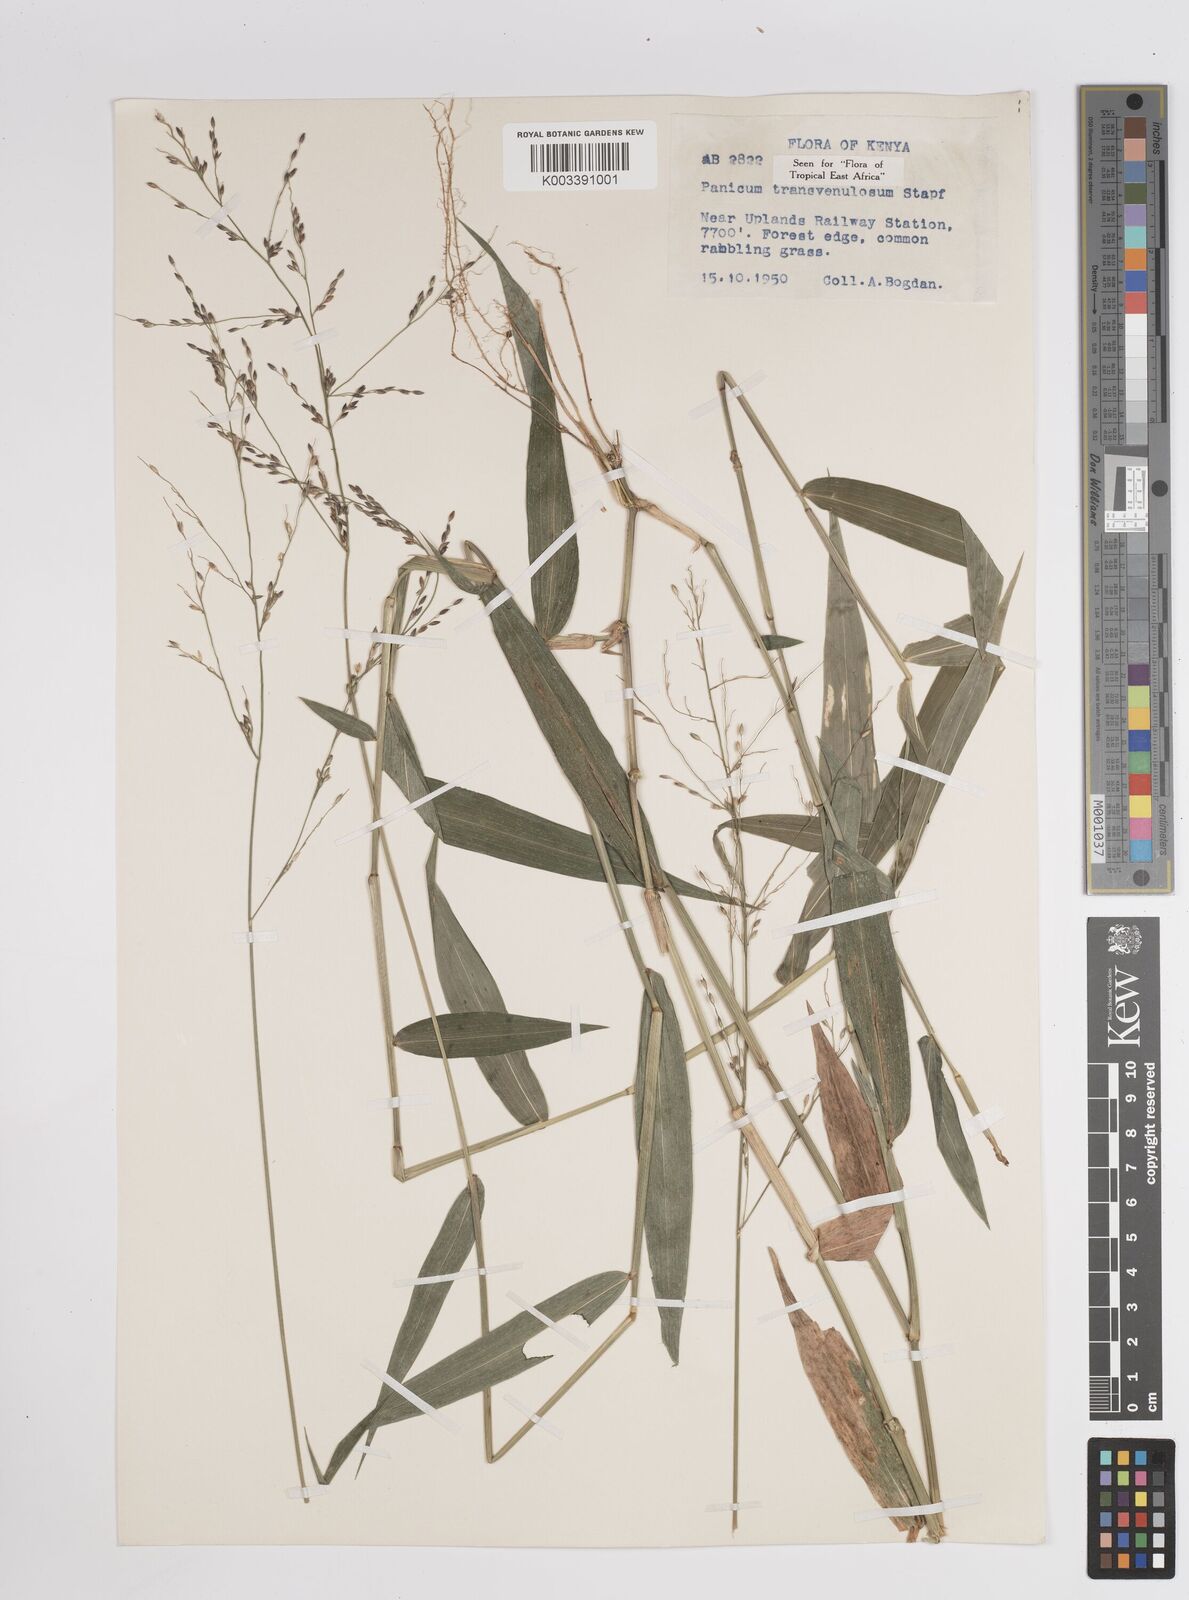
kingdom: Plantae
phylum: Tracheophyta
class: Liliopsida
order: Poales
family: Poaceae
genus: Panicum
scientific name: Panicum monticola
